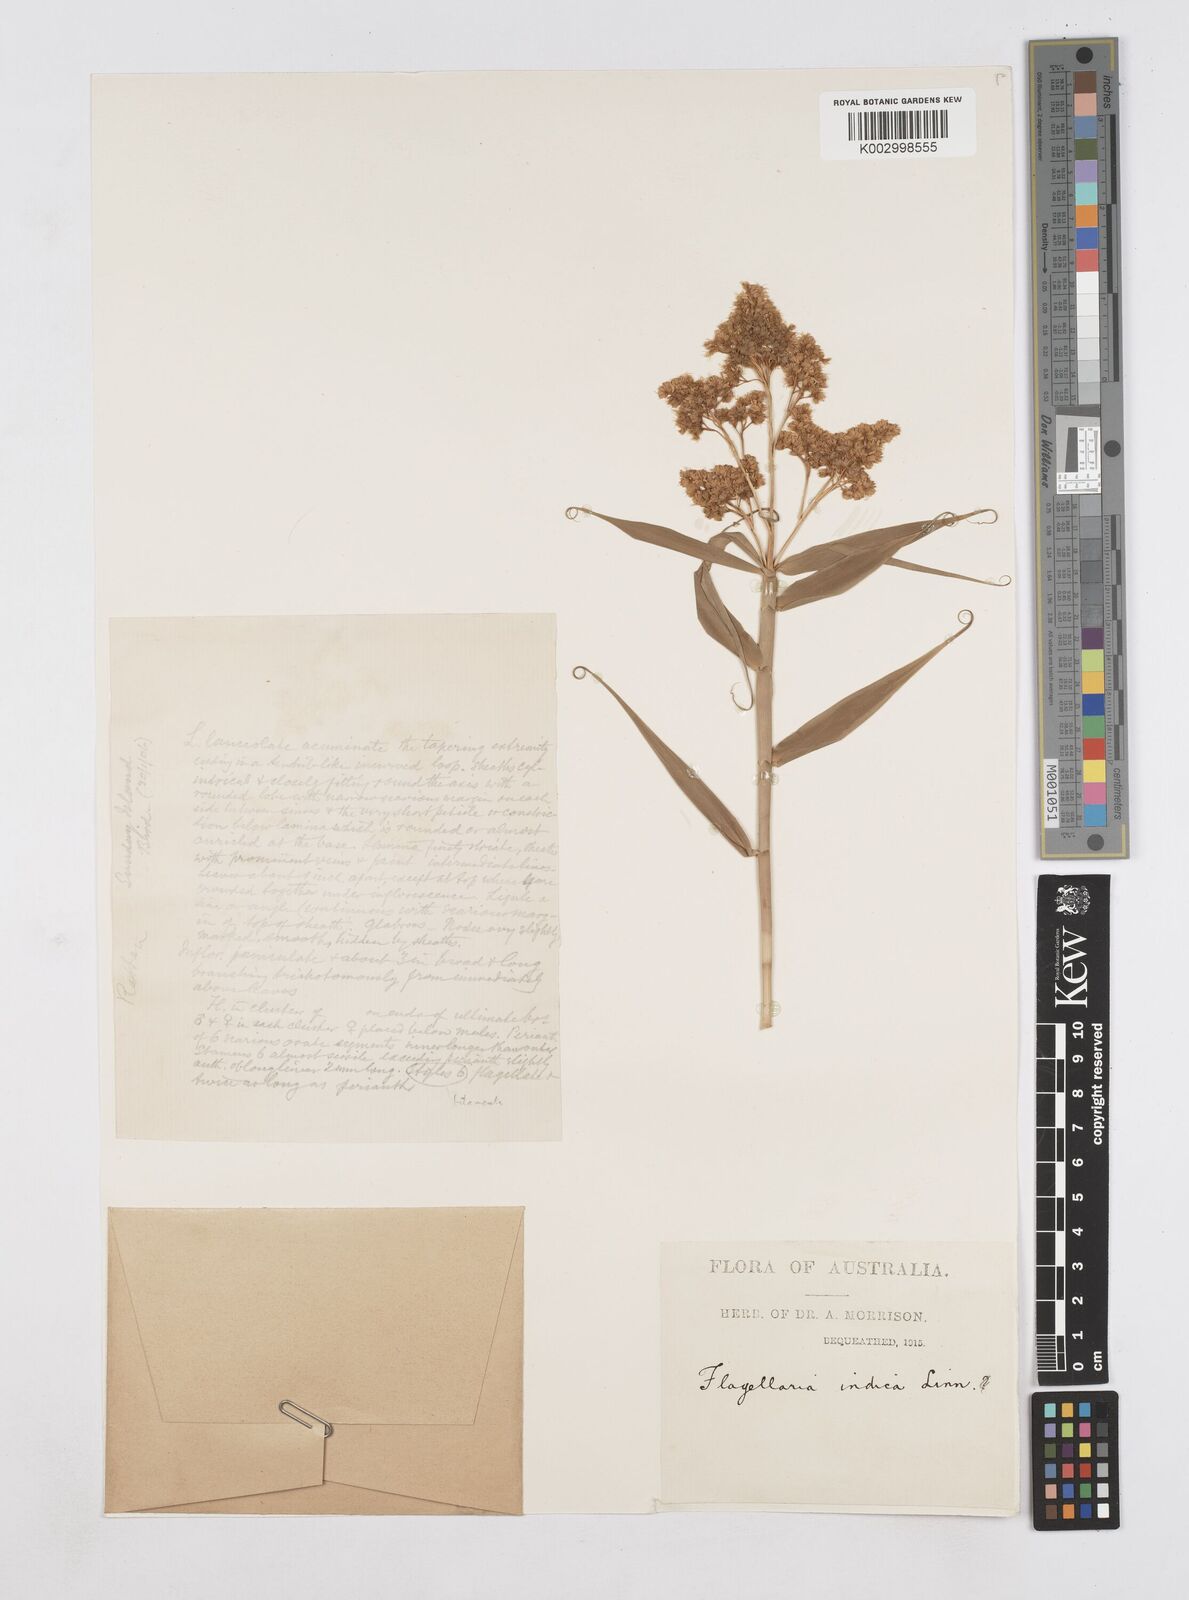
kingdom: Plantae
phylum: Tracheophyta
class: Liliopsida
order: Poales
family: Flagellariaceae
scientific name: Flagellariaceae
